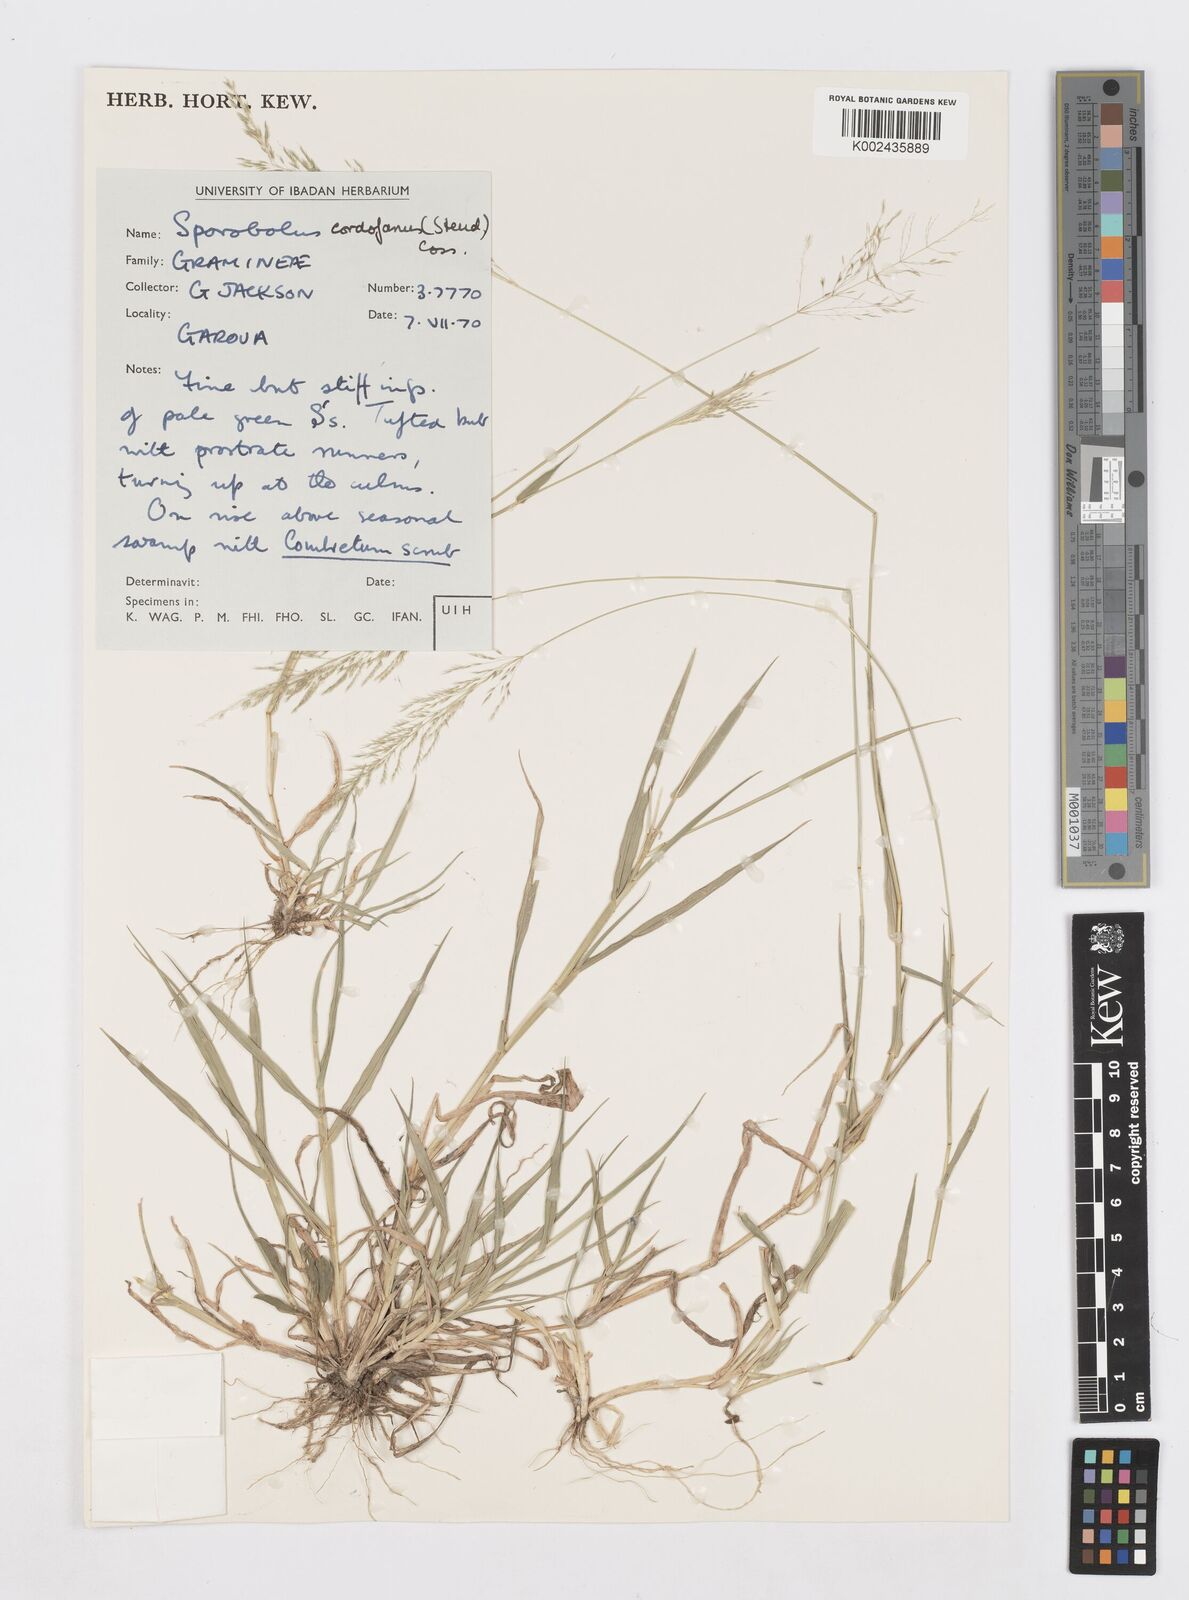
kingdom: Plantae
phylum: Tracheophyta
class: Liliopsida
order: Poales
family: Poaceae
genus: Sporobolus
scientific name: Sporobolus cordofanus
